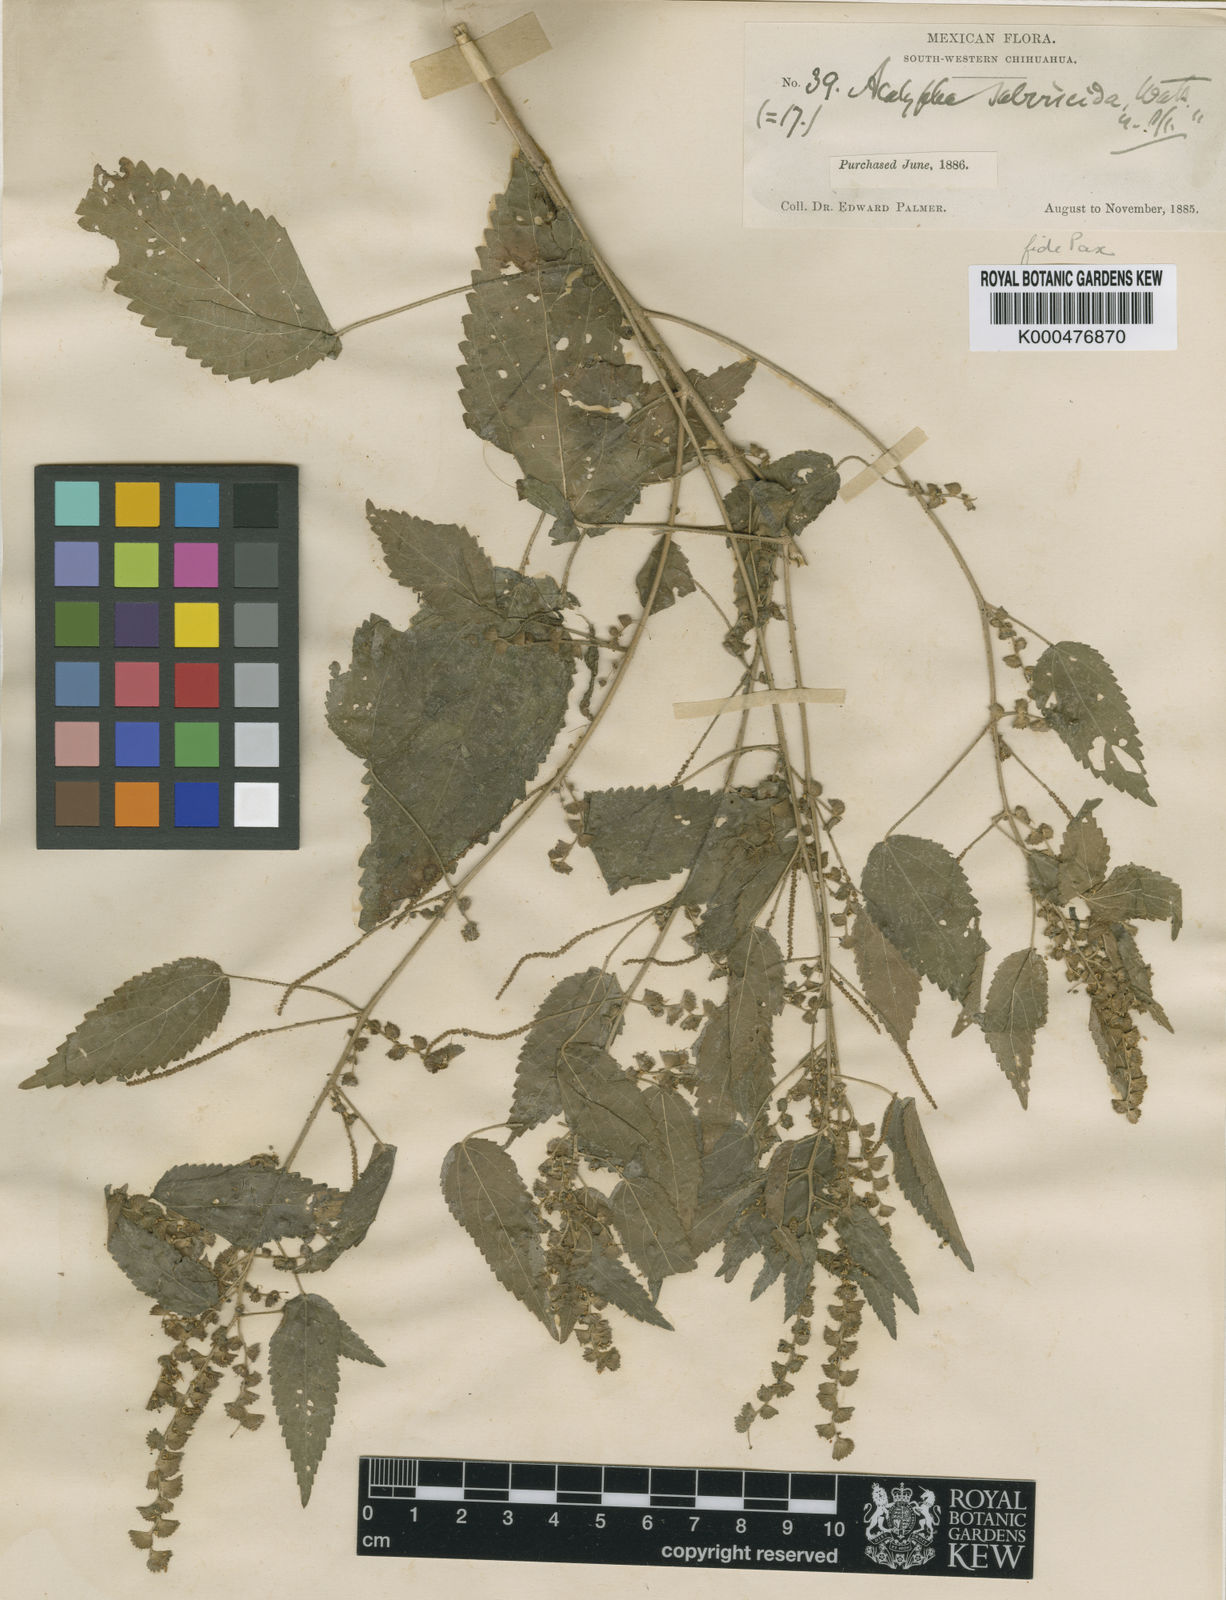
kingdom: Plantae
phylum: Tracheophyta
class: Magnoliopsida
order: Malpighiales
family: Euphorbiaceae
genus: Acalypha
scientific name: Acalypha subviscida
